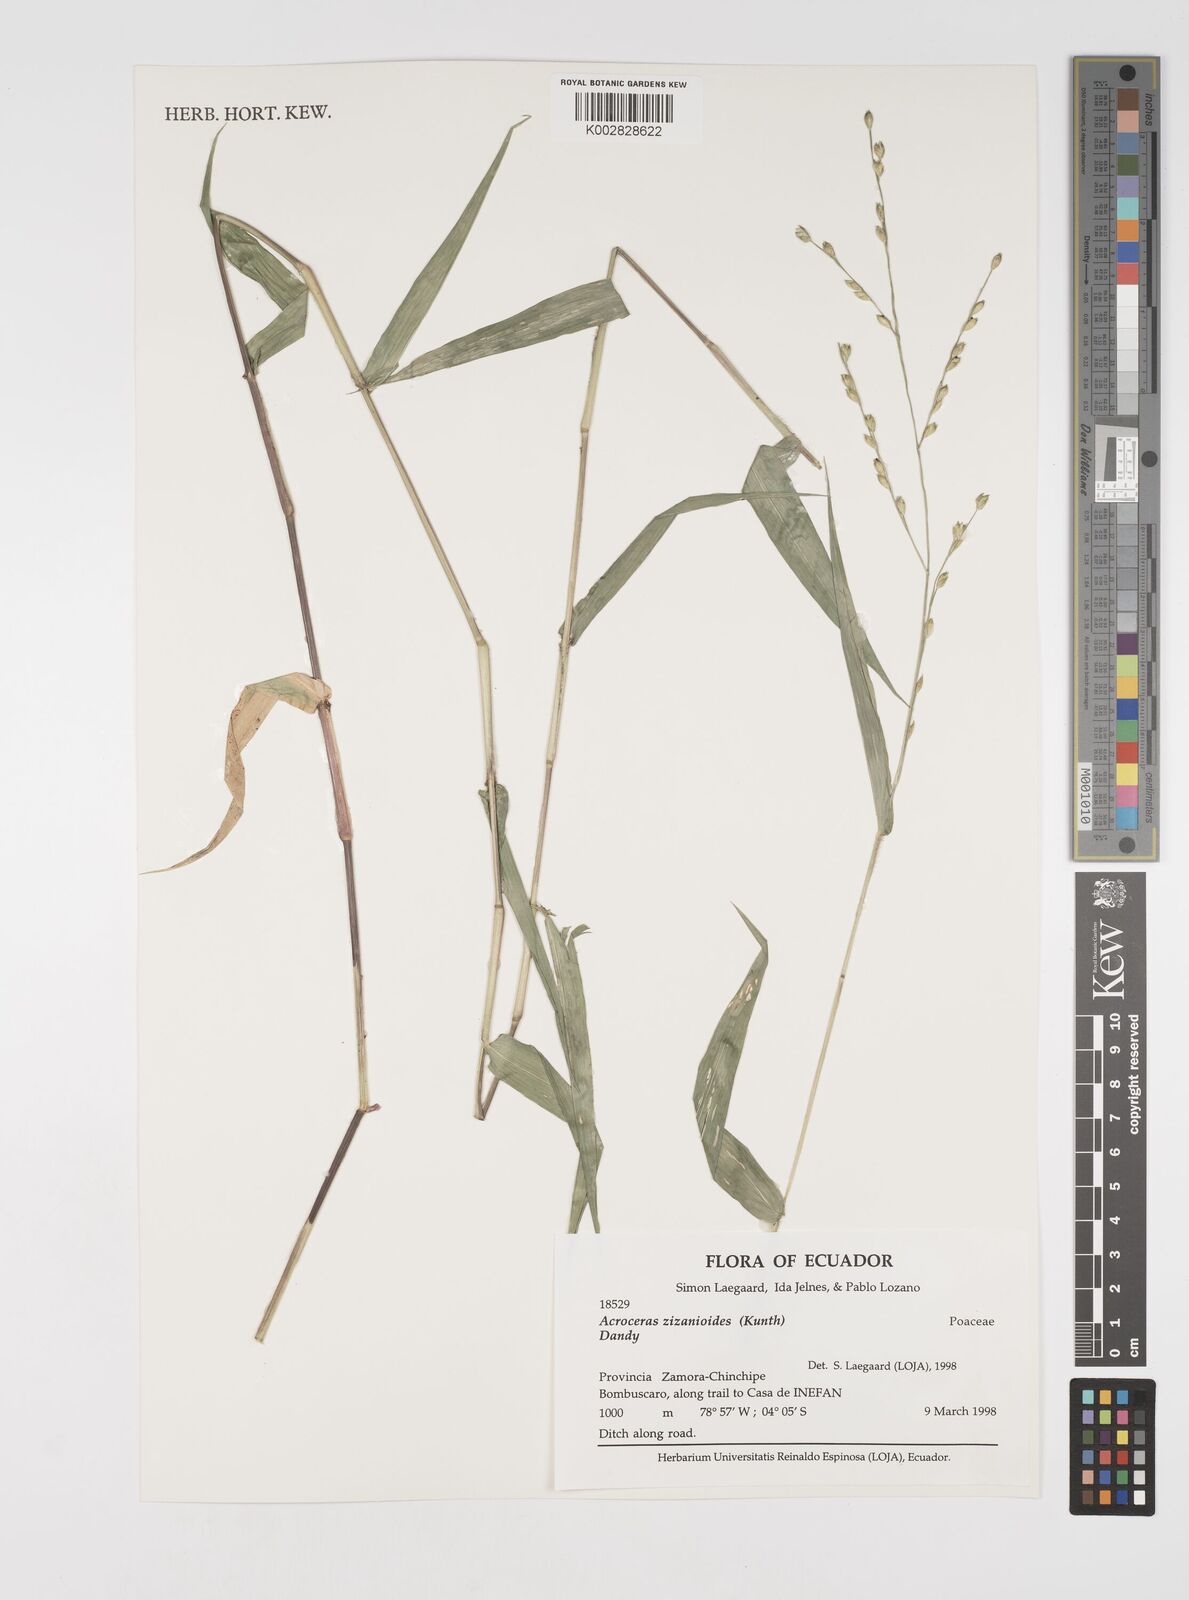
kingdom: Plantae
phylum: Tracheophyta
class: Liliopsida
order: Poales
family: Poaceae
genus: Acroceras
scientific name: Acroceras zizanioides
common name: Oat grass
